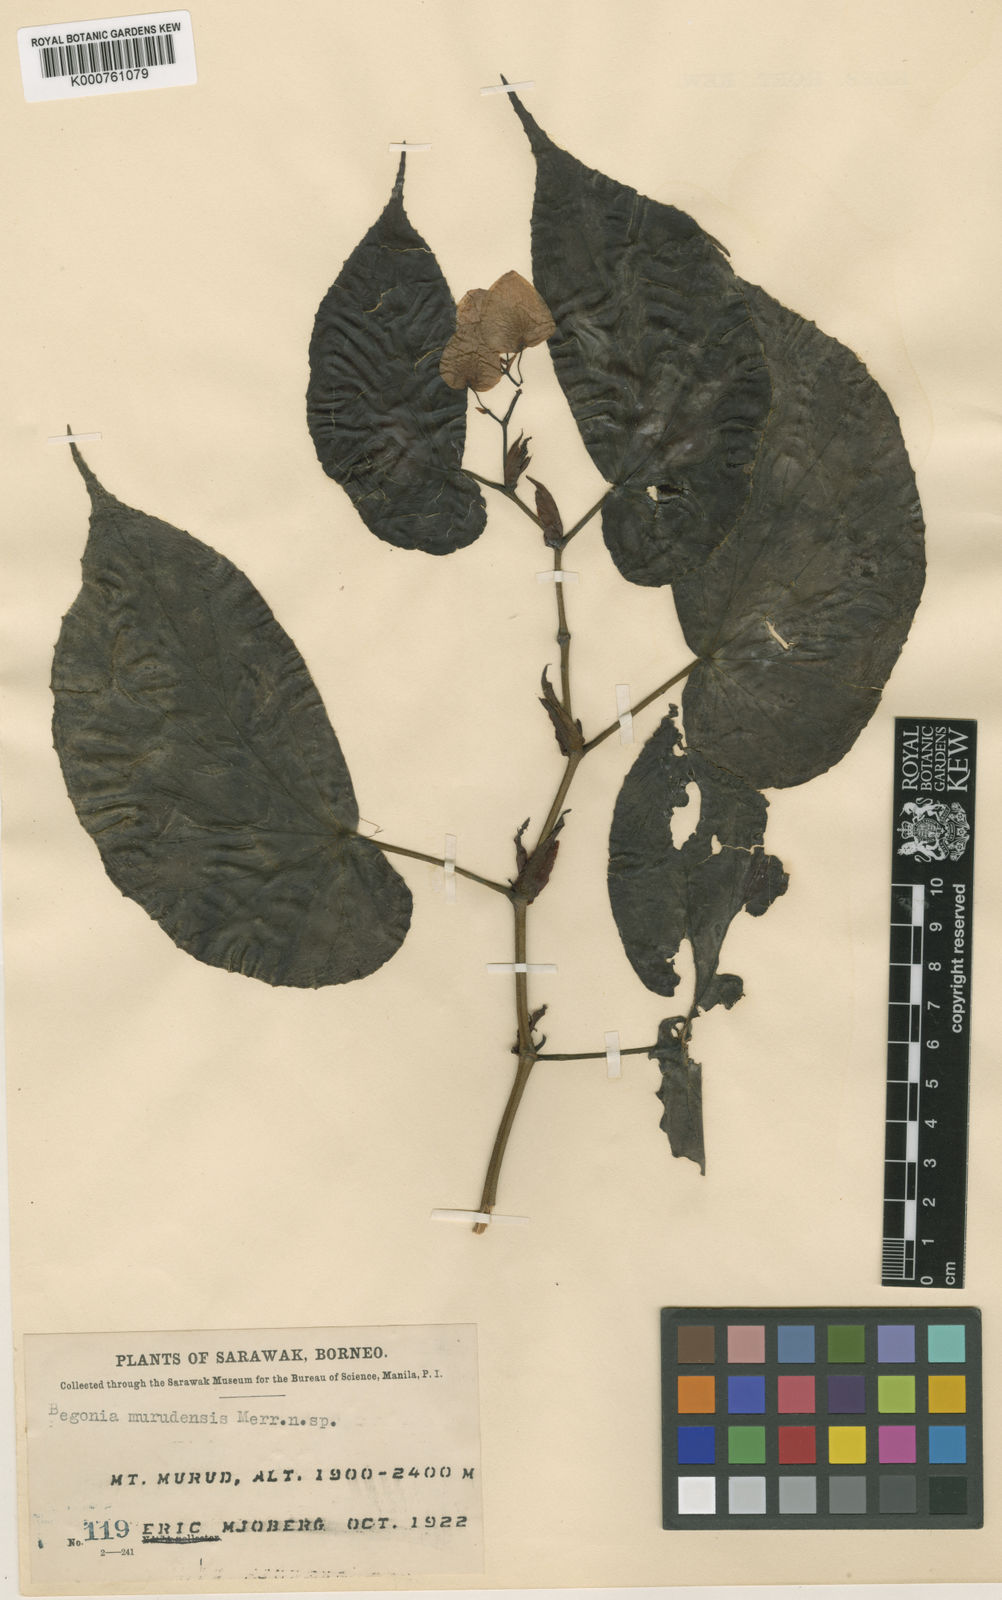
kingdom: Plantae
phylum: Tracheophyta
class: Magnoliopsida
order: Cucurbitales
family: Begoniaceae
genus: Begonia
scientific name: Begonia murudensis
